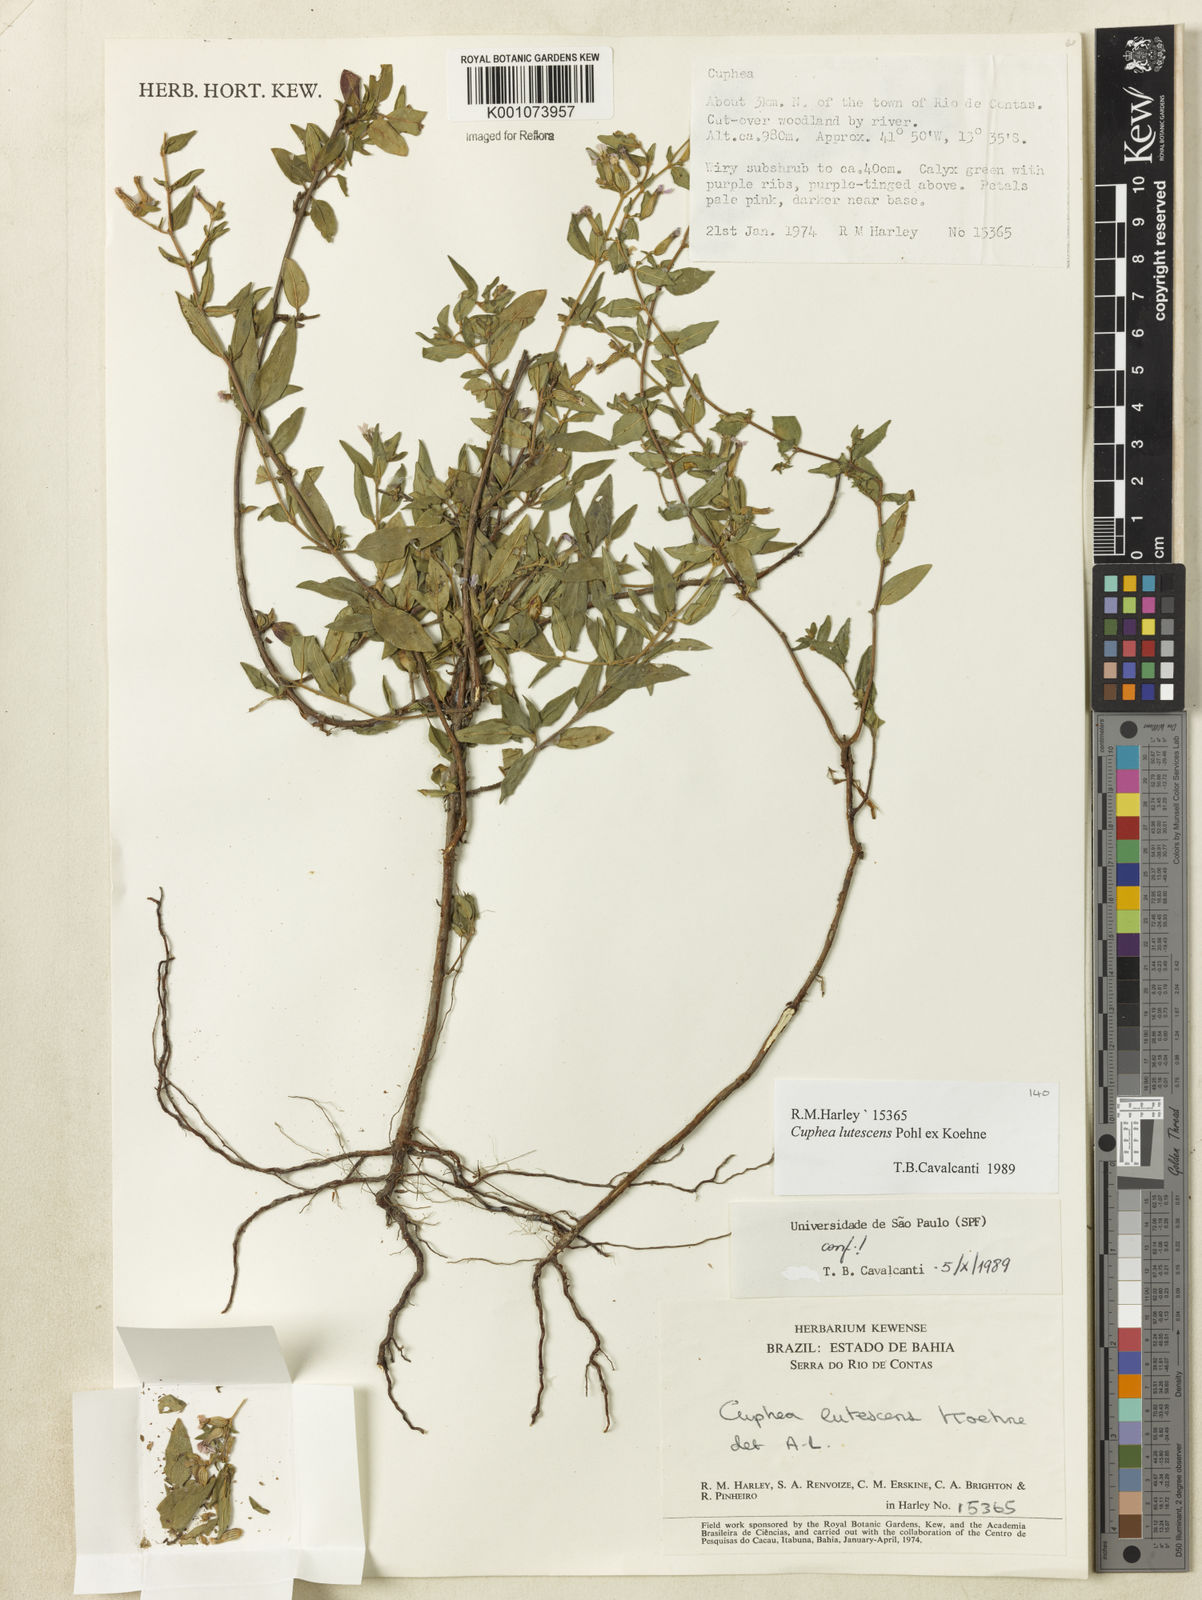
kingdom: Plantae
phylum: Tracheophyta
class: Magnoliopsida
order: Myrtales
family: Lythraceae
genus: Cuphea
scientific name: Cuphea lutescens
